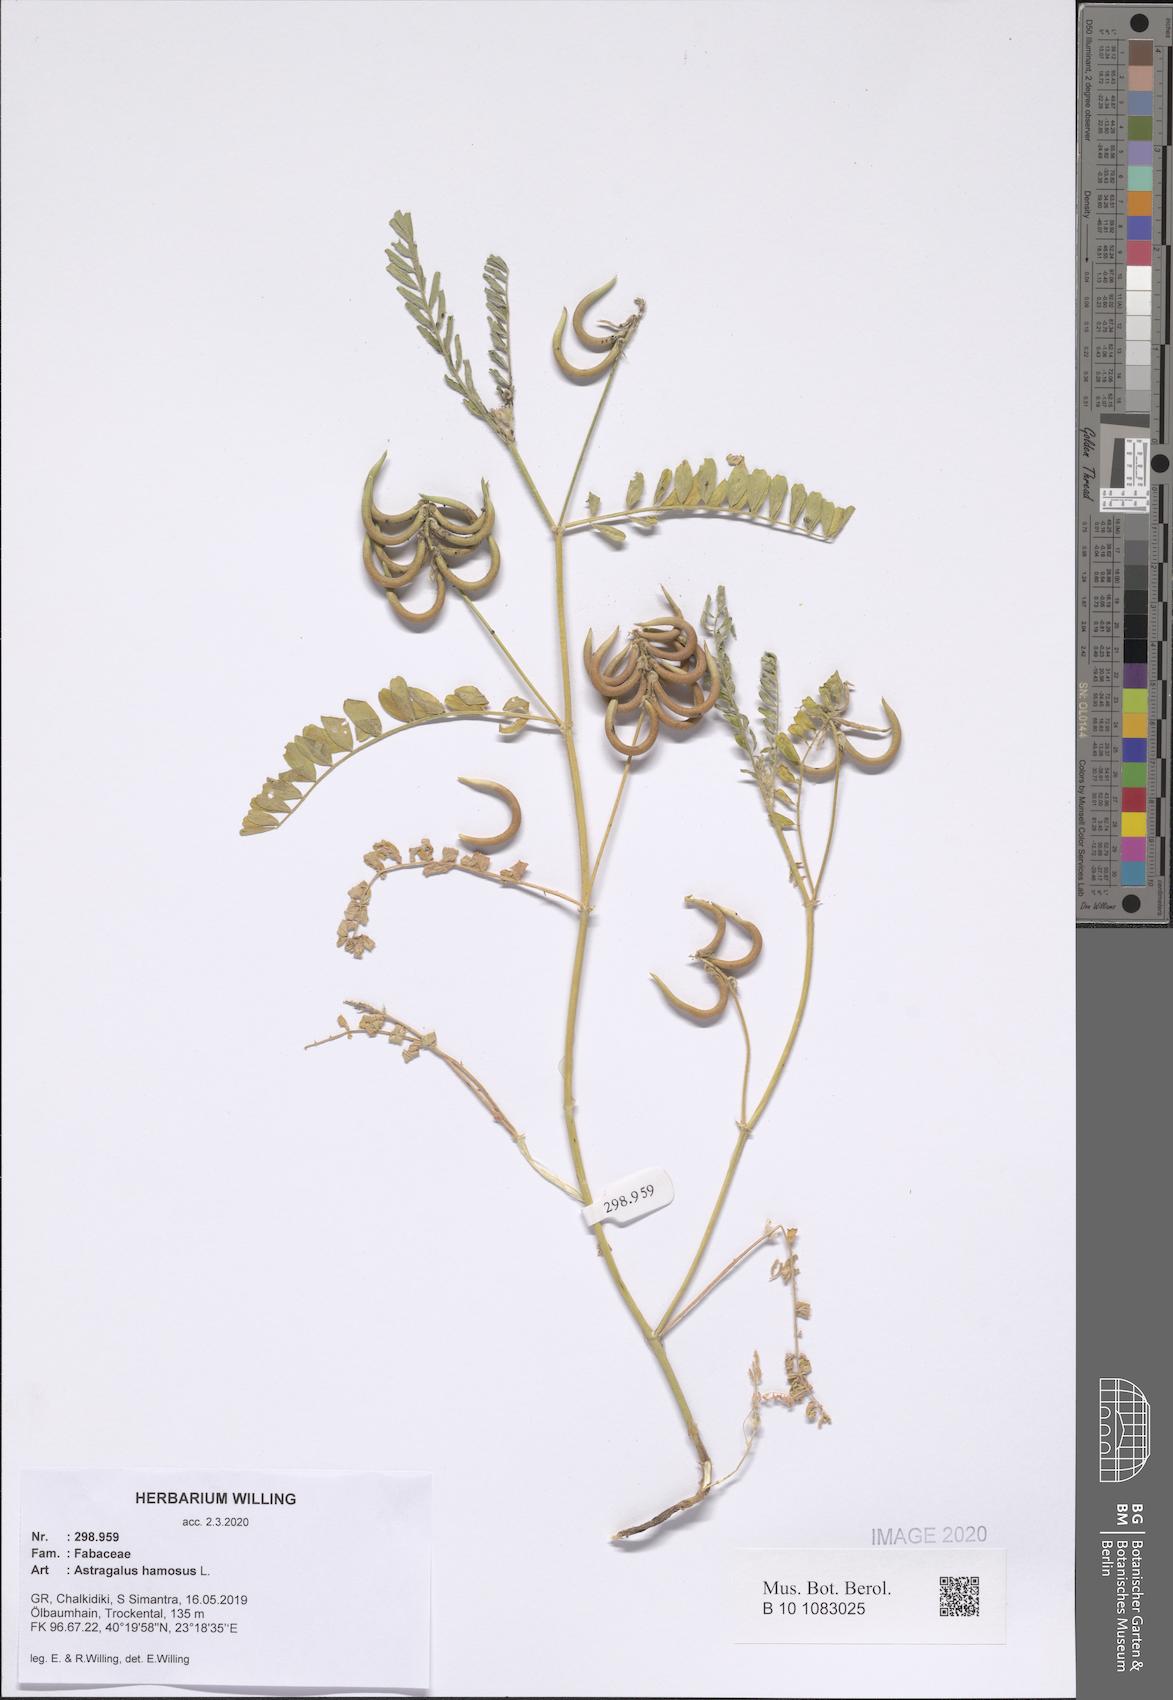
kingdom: Plantae
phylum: Tracheophyta
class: Magnoliopsida
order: Fabales
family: Fabaceae
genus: Astragalus
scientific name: Astragalus hamosus
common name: European milkvetch
